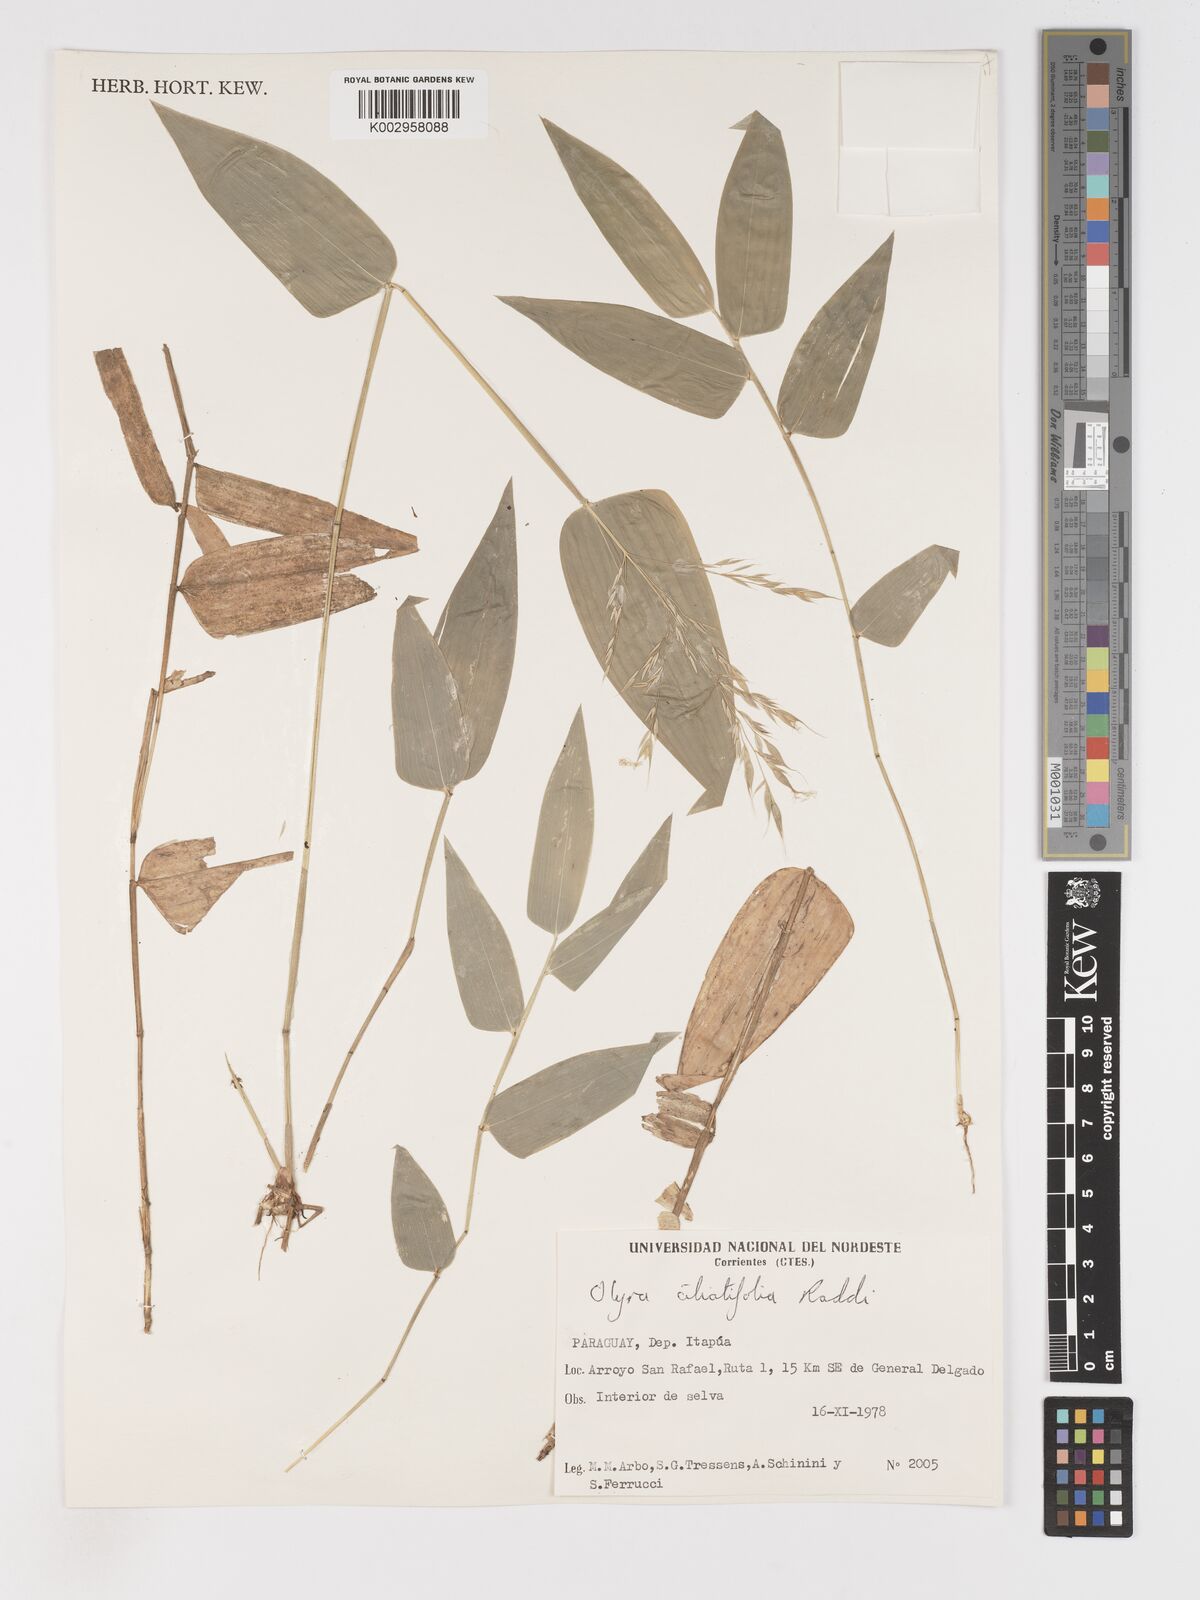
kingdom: Plantae
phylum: Tracheophyta
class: Liliopsida
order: Poales
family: Poaceae
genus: Olyra
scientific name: Olyra ciliatifolia
